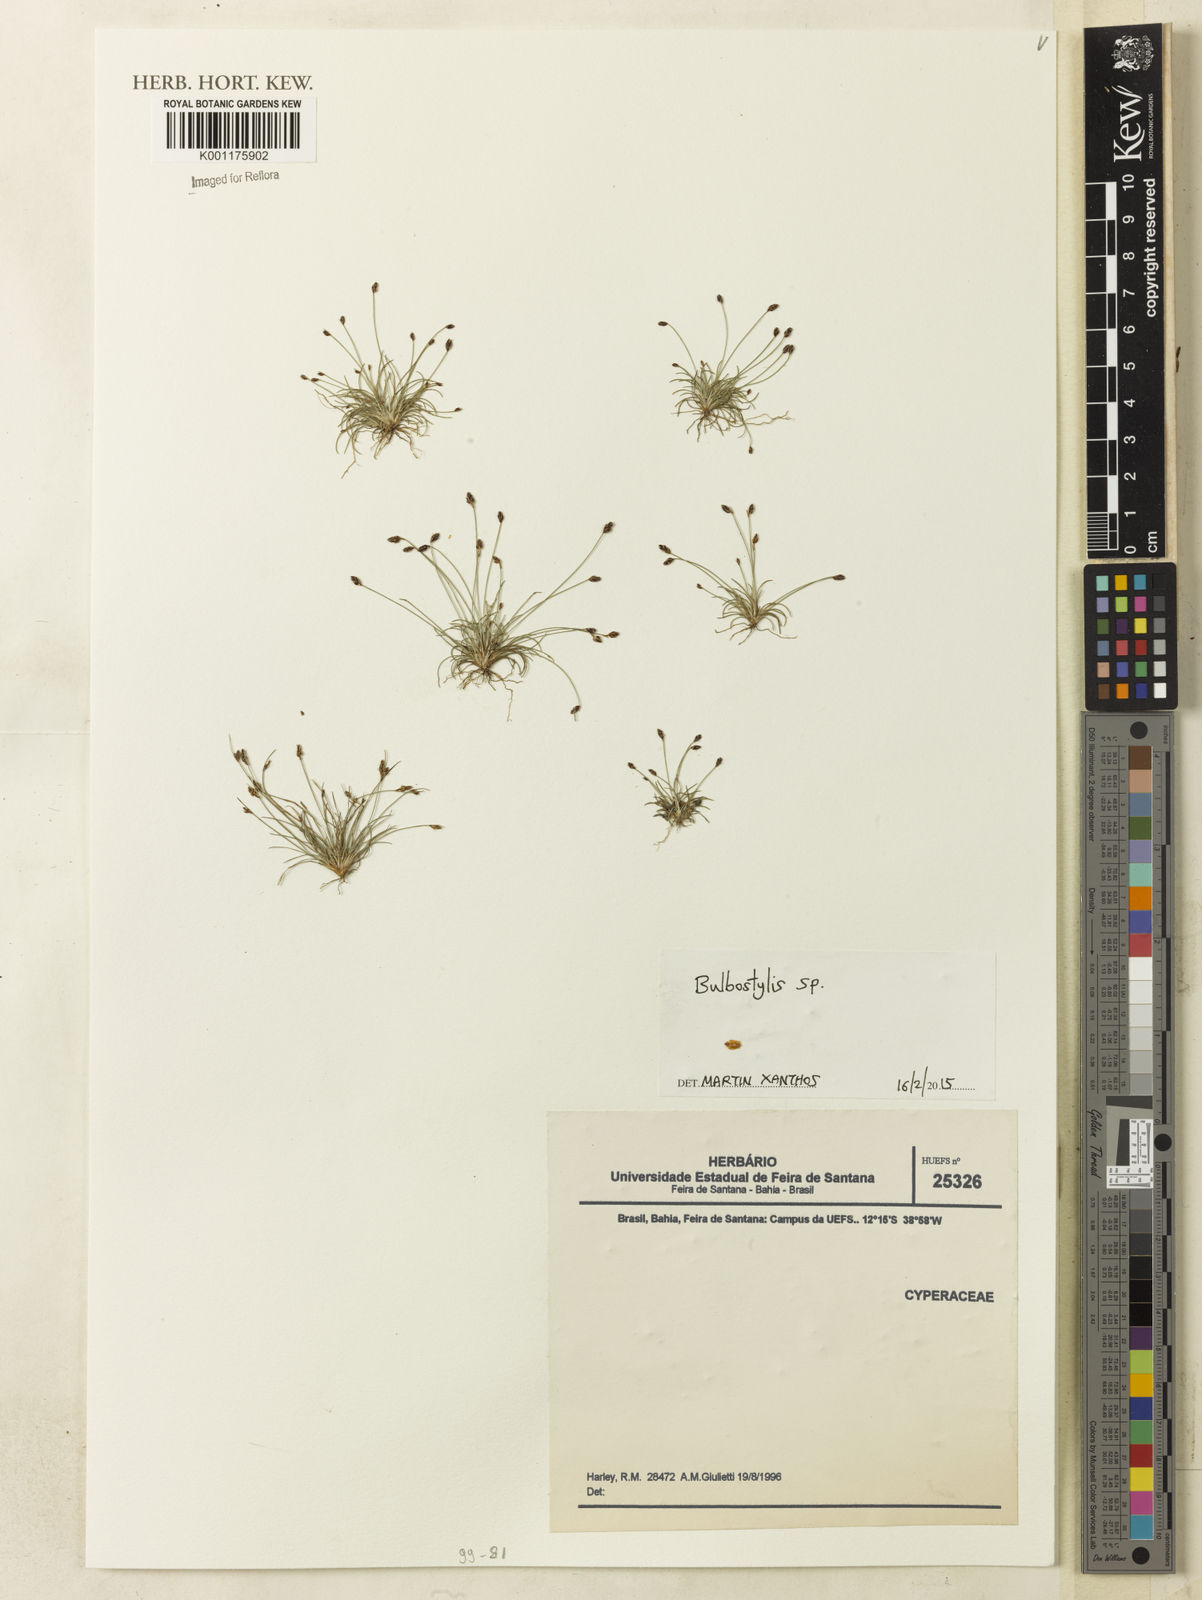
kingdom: Plantae
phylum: Tracheophyta
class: Liliopsida
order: Poales
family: Cyperaceae
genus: Bulbostylis
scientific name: Bulbostylis
